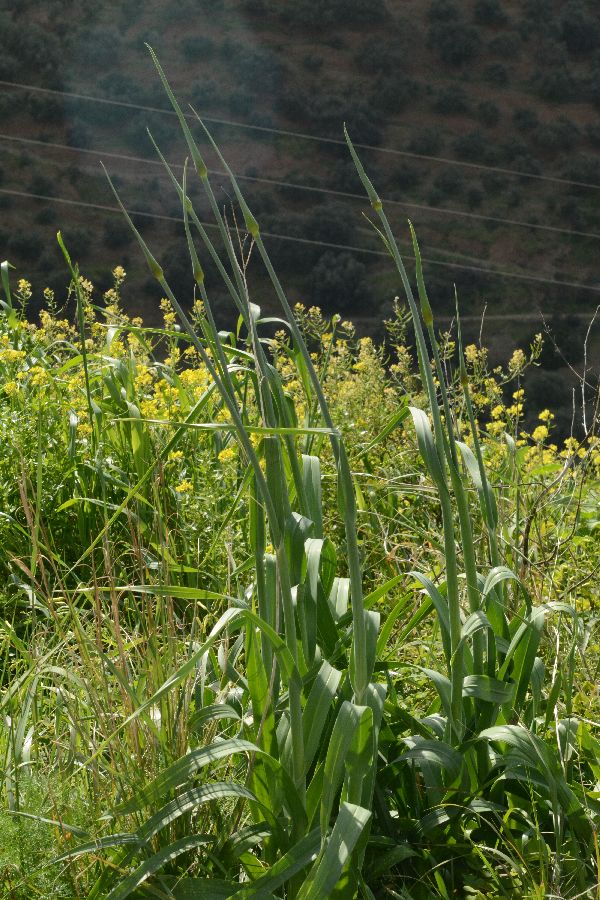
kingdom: Plantae
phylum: Tracheophyta
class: Liliopsida
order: Asparagales
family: Amaryllidaceae
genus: Allium
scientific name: Allium pallens
